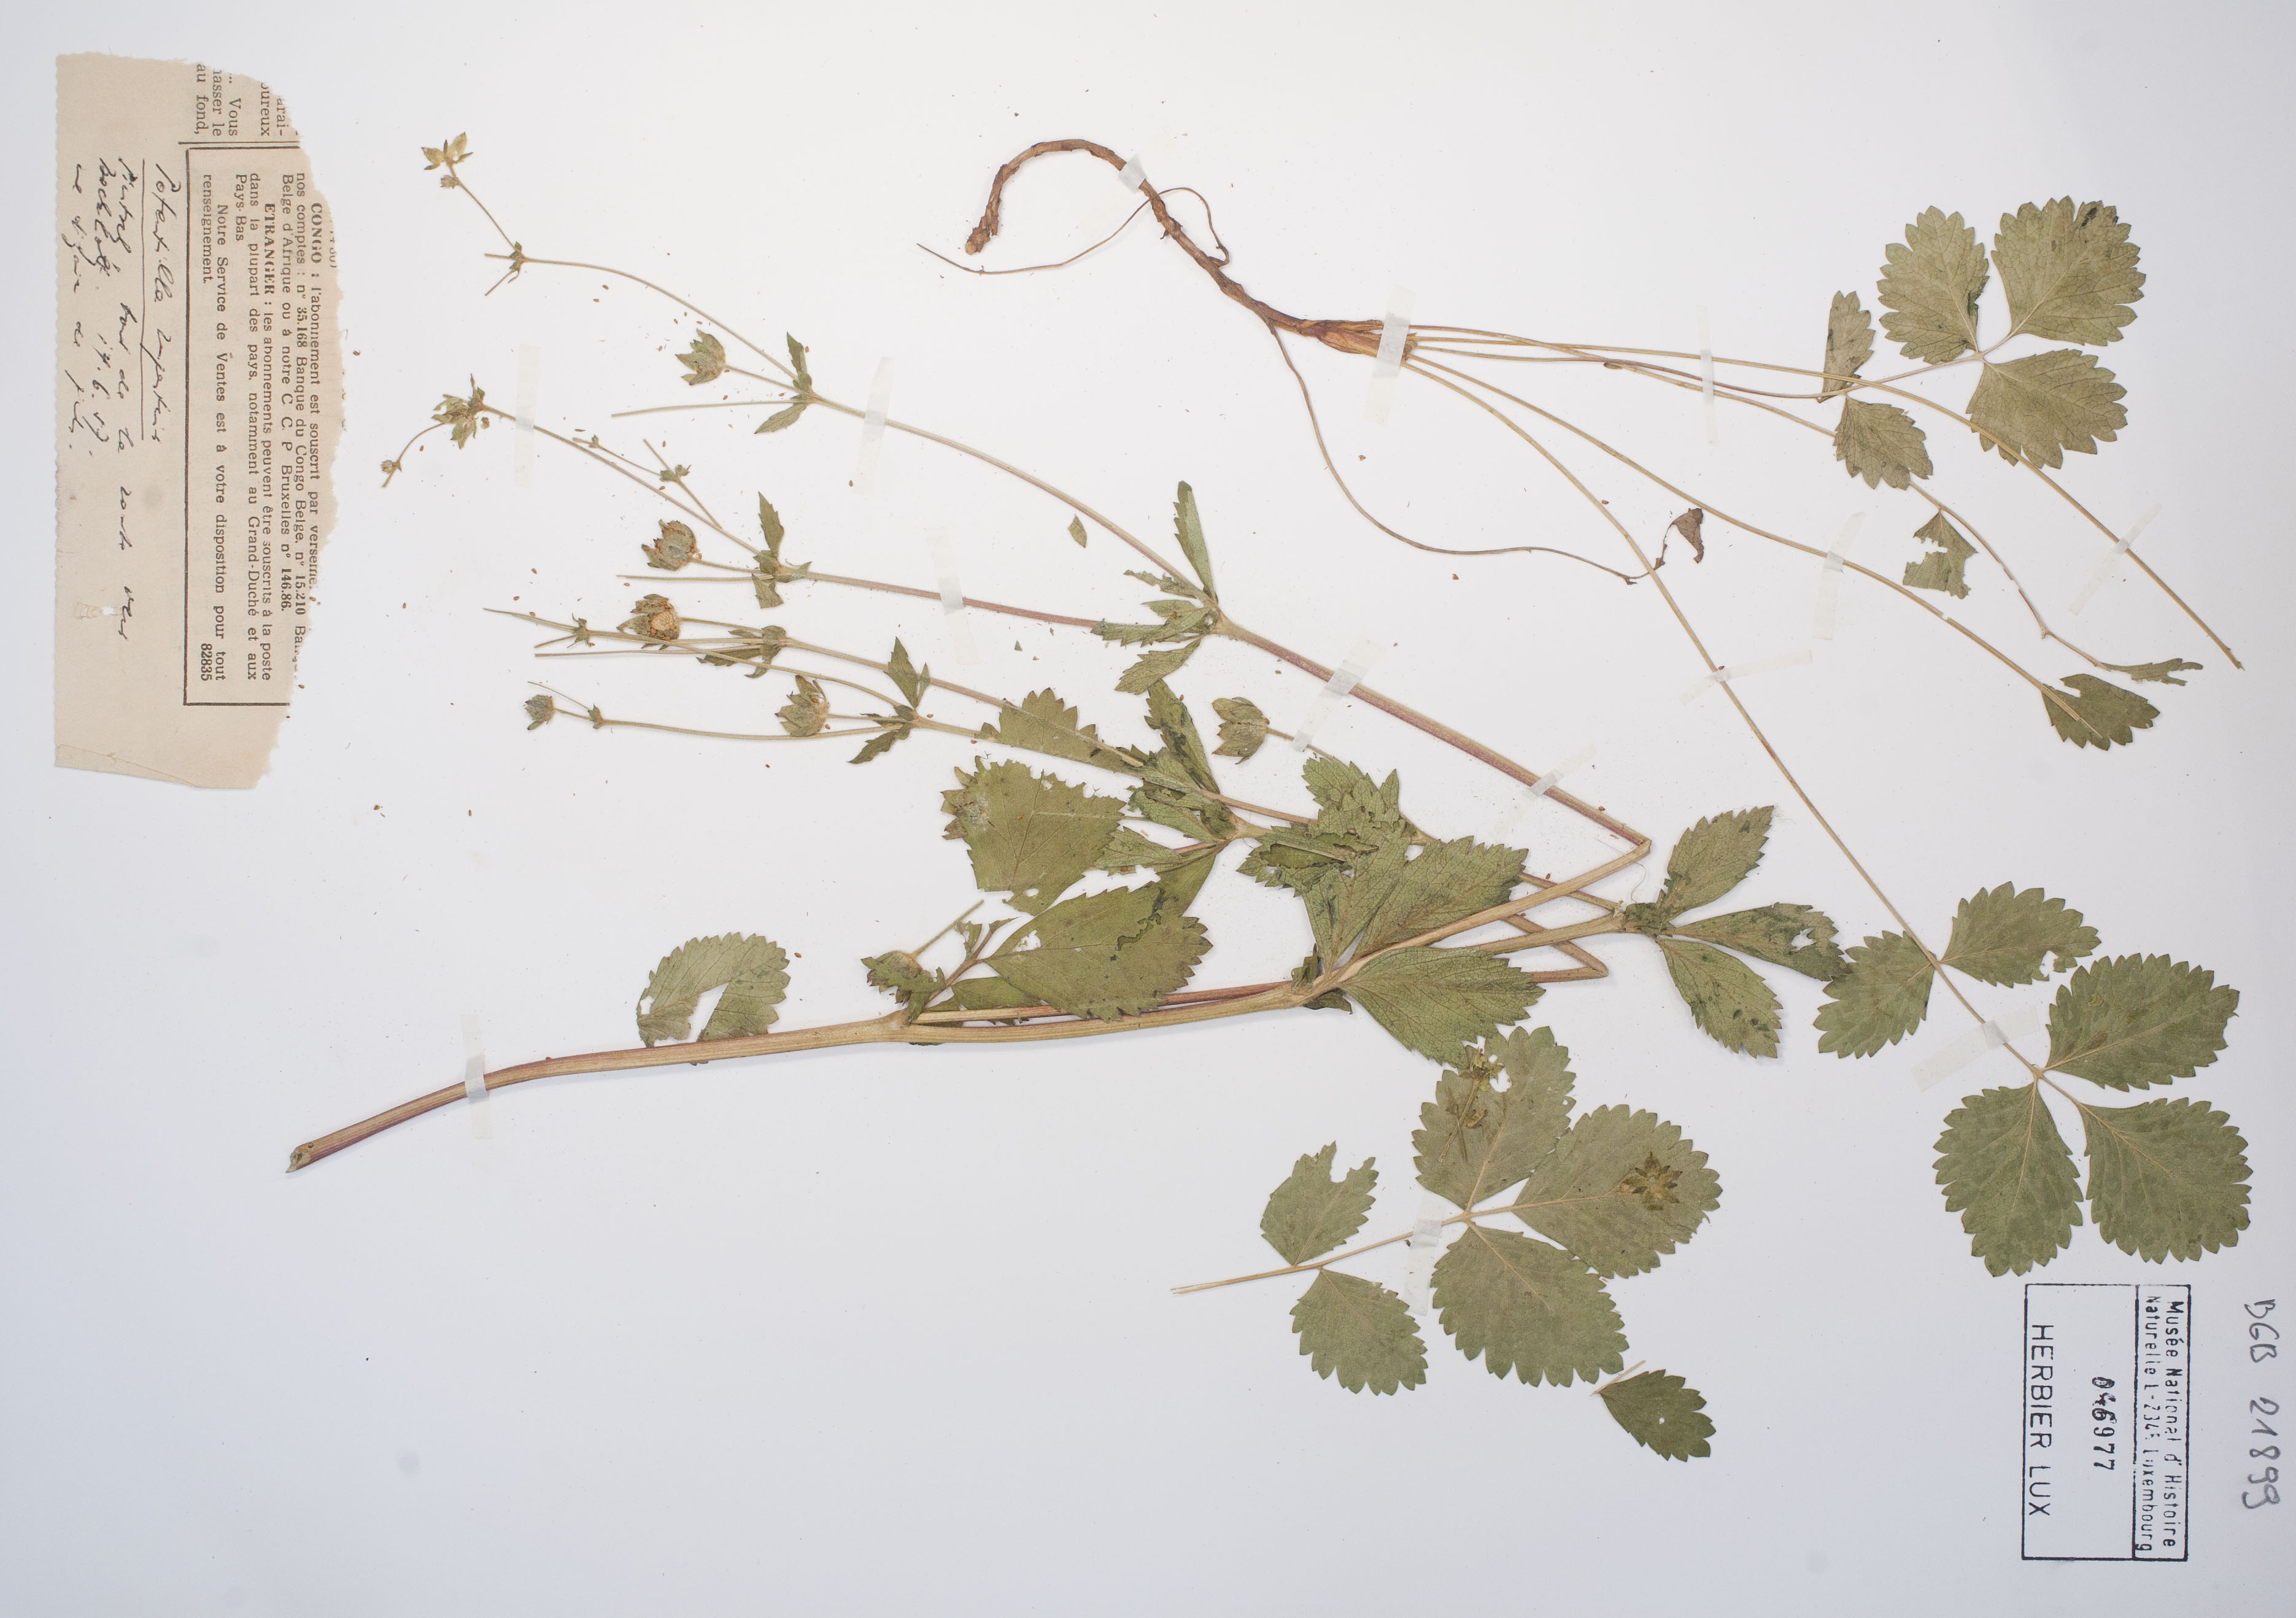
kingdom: Plantae
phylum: Tracheophyta
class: Magnoliopsida
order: Rosales
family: Rosaceae
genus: Drymocallis
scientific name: Drymocallis rupestris
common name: Rock cinquefoil
